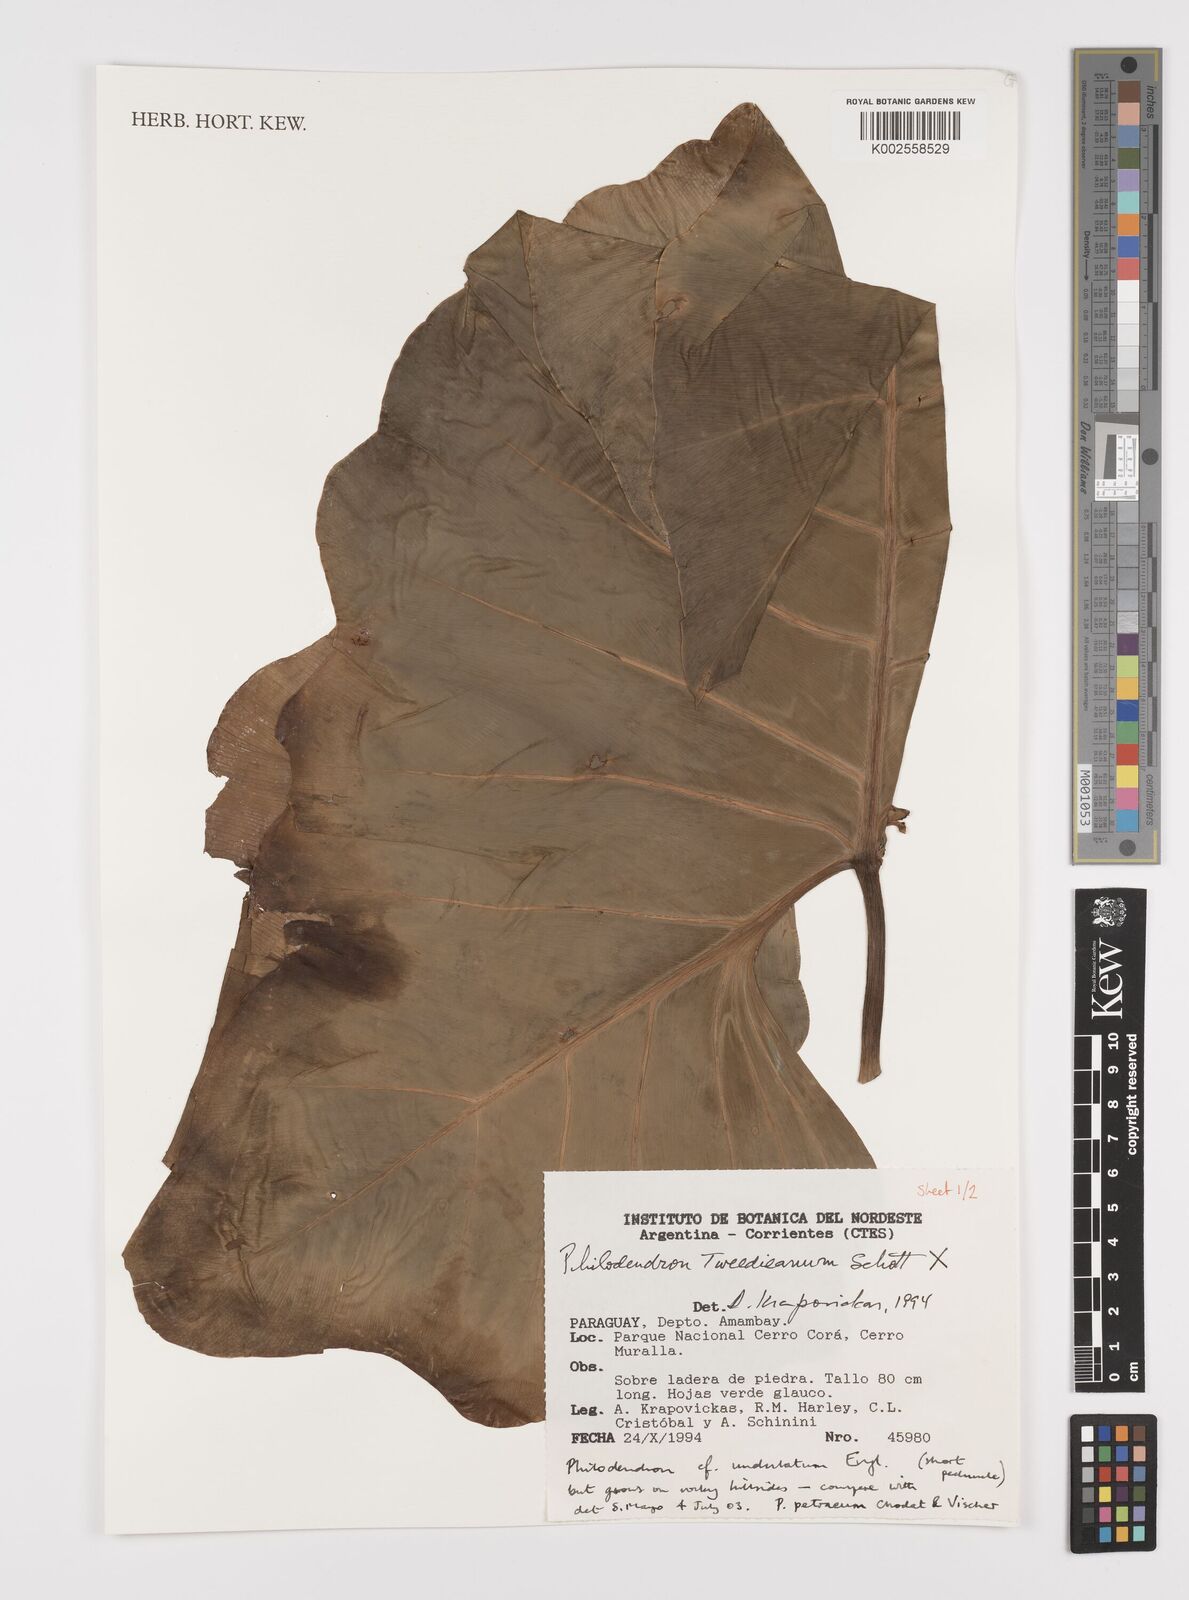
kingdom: Plantae
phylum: Tracheophyta
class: Liliopsida
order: Alismatales
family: Araceae
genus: Thaumatophyllum
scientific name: Thaumatophyllum undulatum
